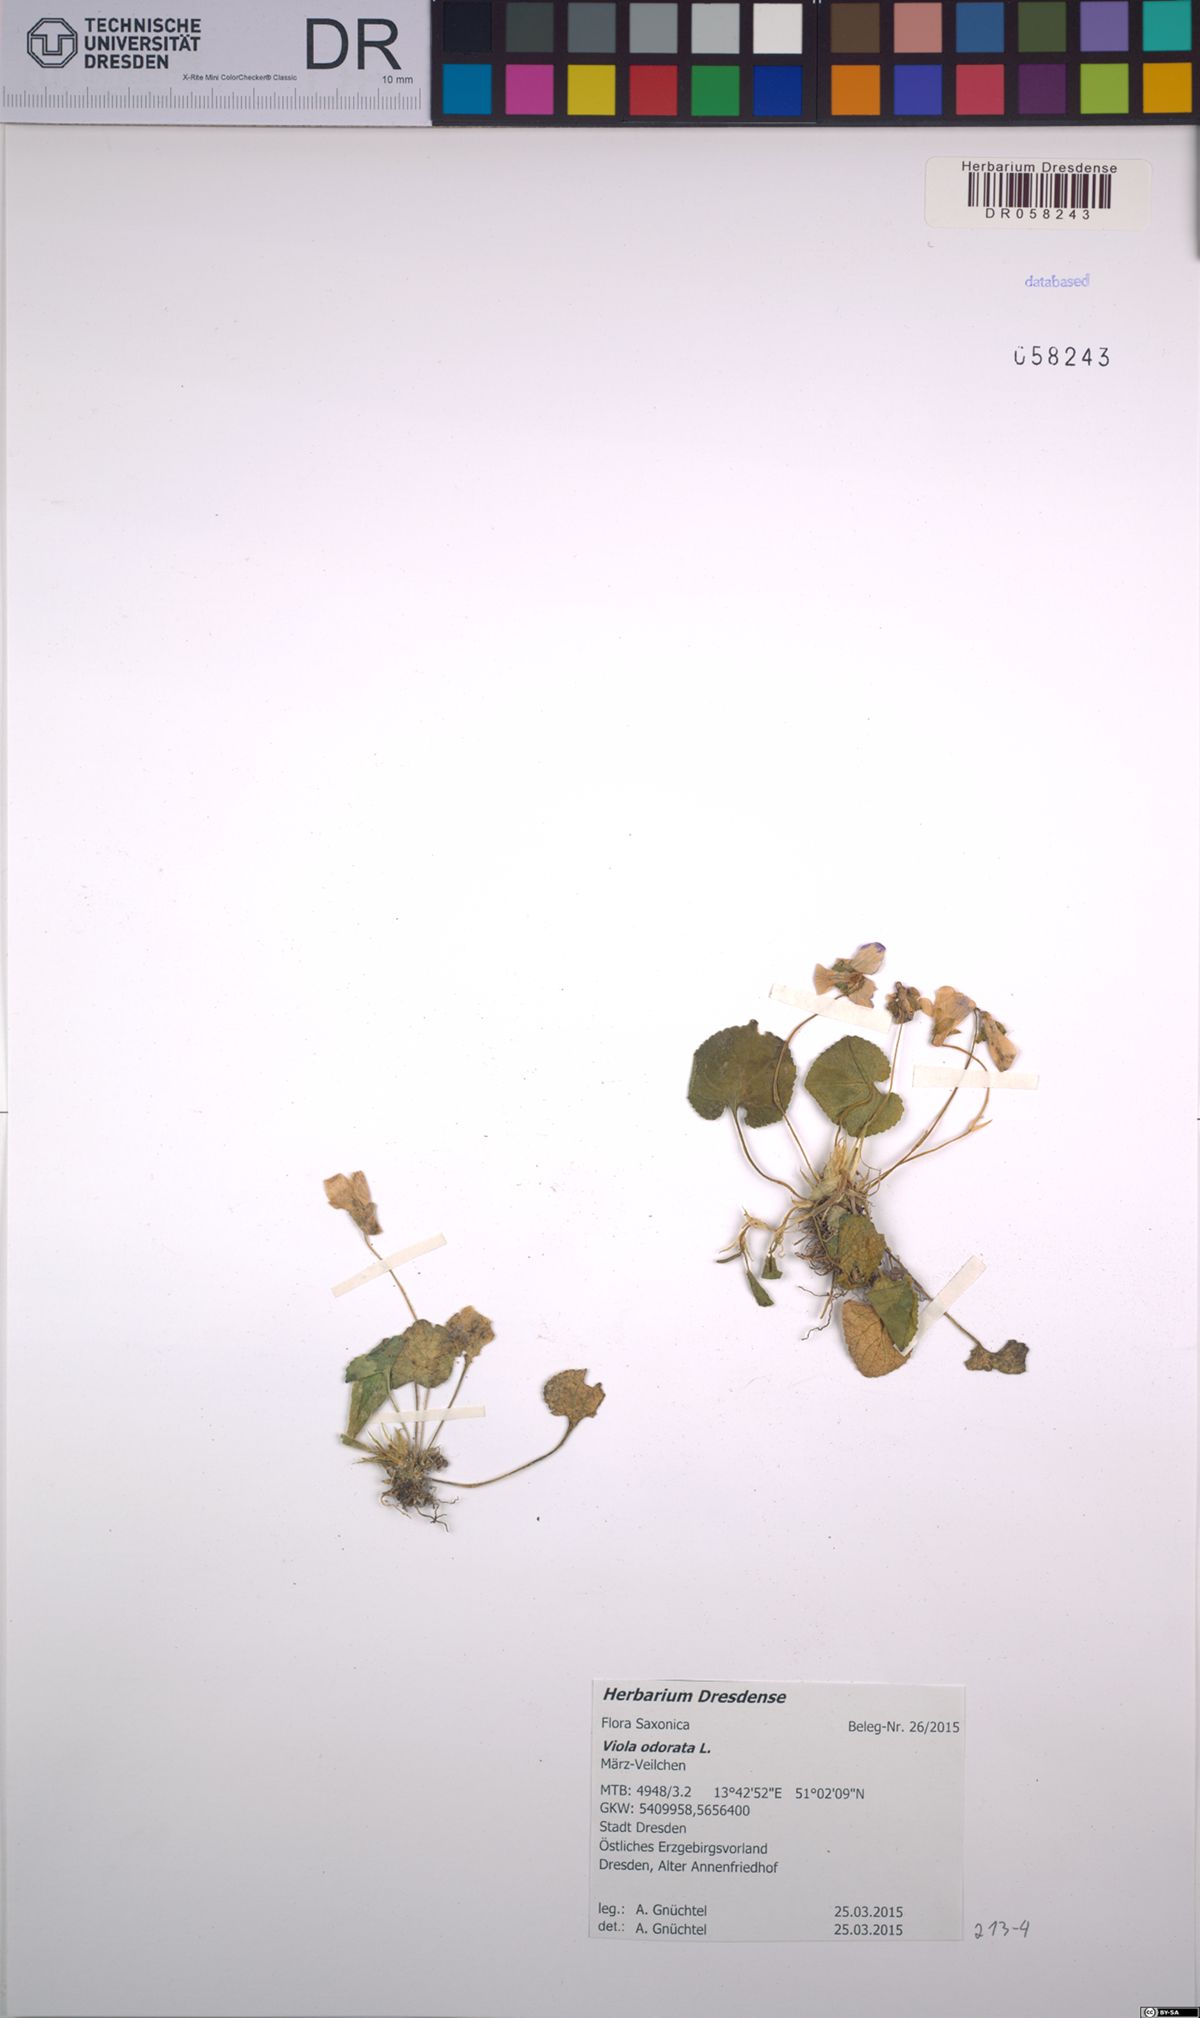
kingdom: Plantae
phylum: Tracheophyta
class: Magnoliopsida
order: Malpighiales
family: Violaceae
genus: Viola
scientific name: Viola odorata
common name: Sweet violet
